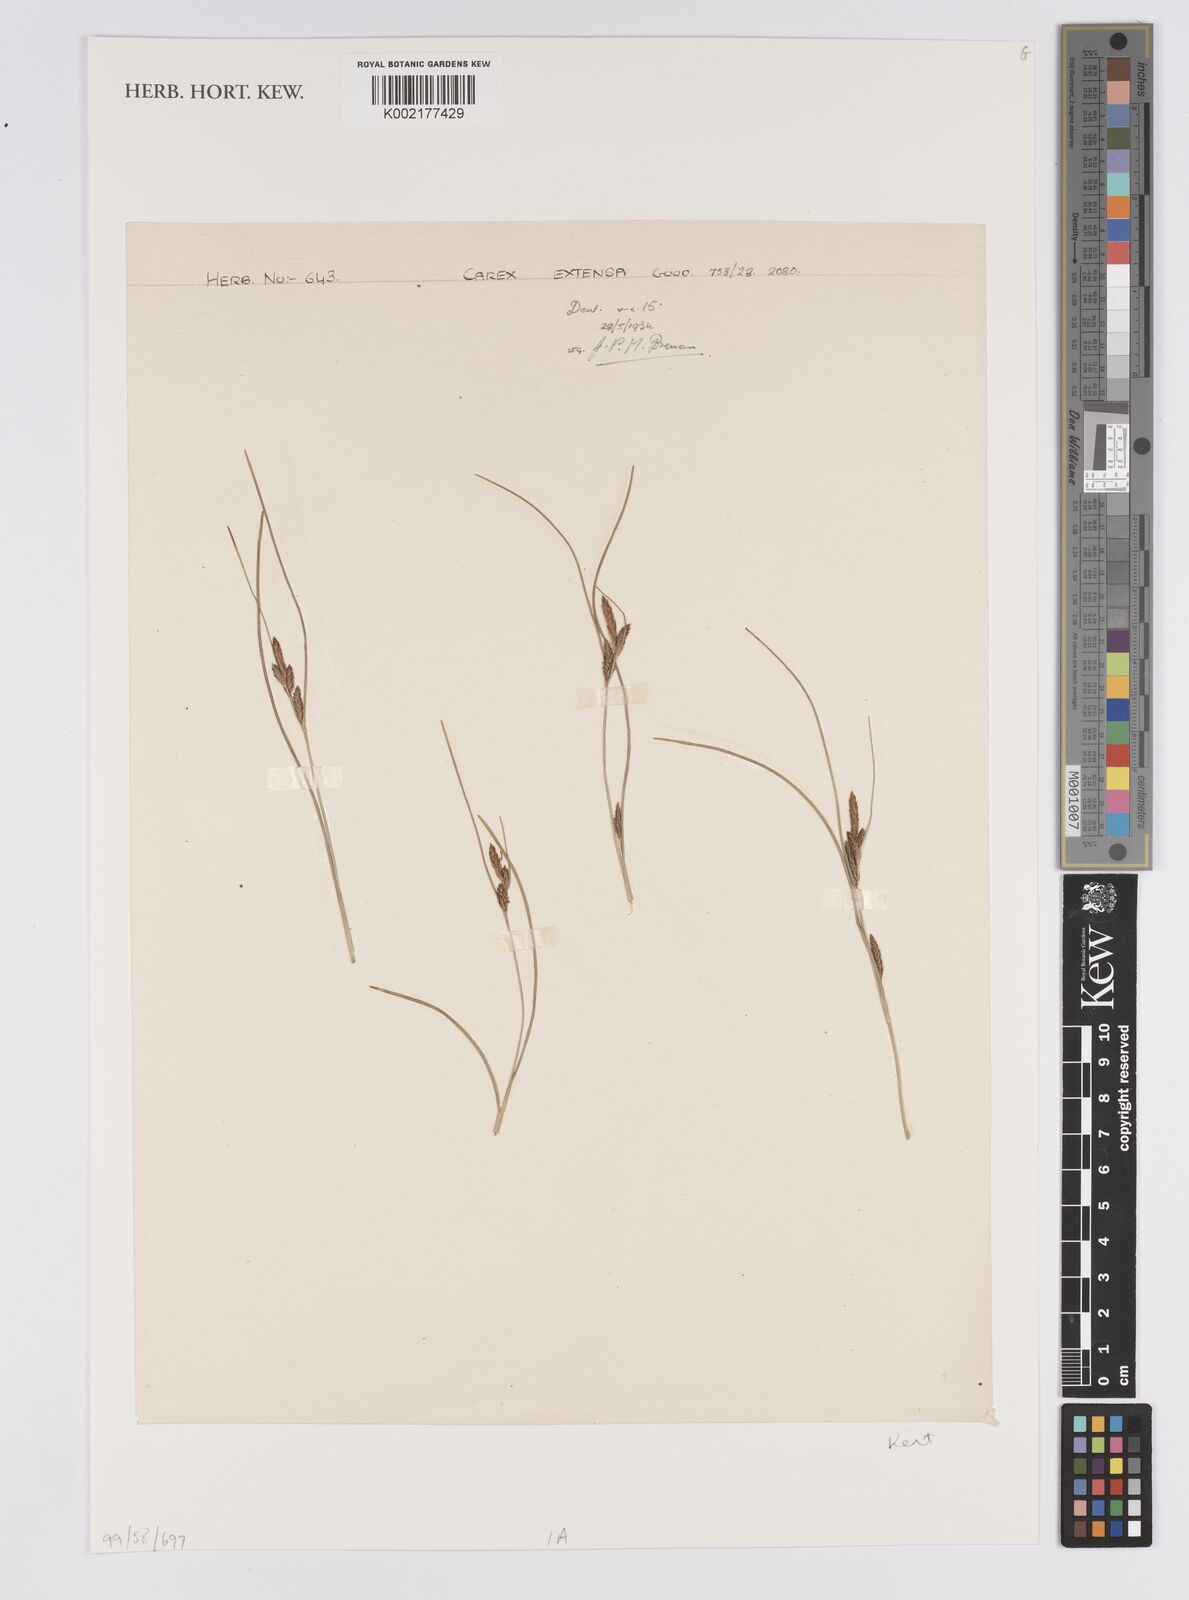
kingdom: Plantae
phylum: Tracheophyta
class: Liliopsida
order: Poales
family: Cyperaceae
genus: Carex
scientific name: Carex extensa
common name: Long-bracted sedge
